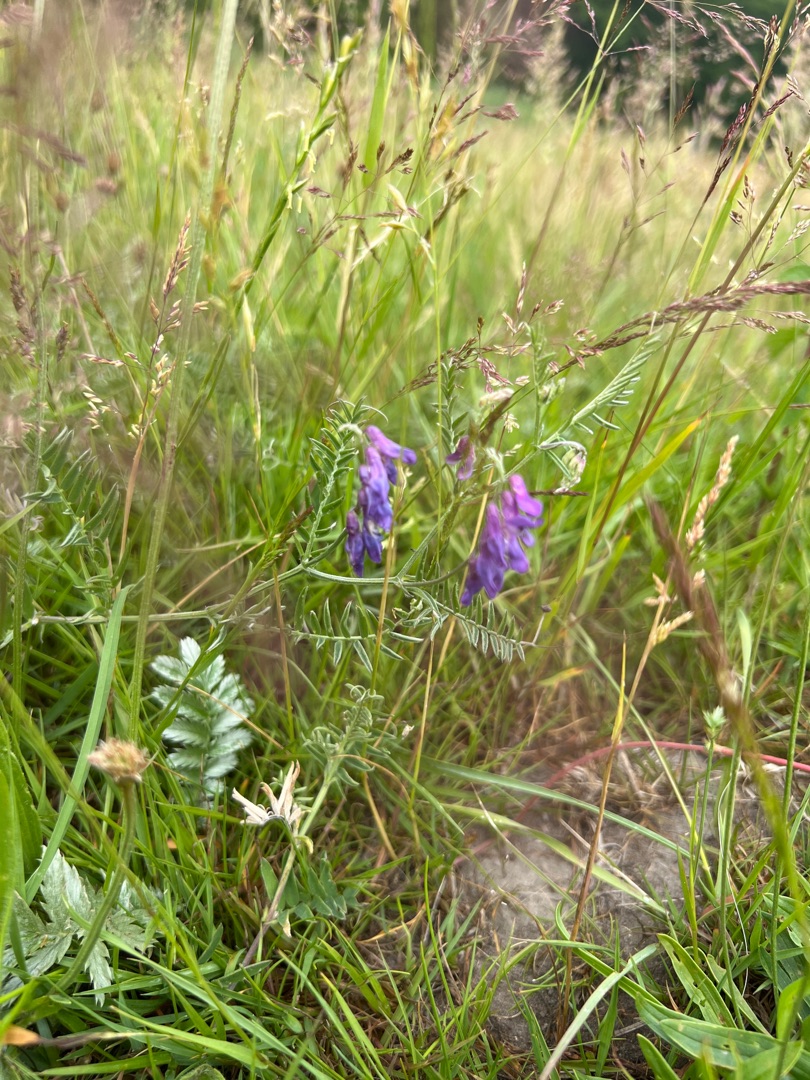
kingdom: Plantae
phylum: Tracheophyta
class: Magnoliopsida
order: Fabales
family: Fabaceae
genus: Vicia
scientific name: Vicia cracca
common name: Muse-vikke
